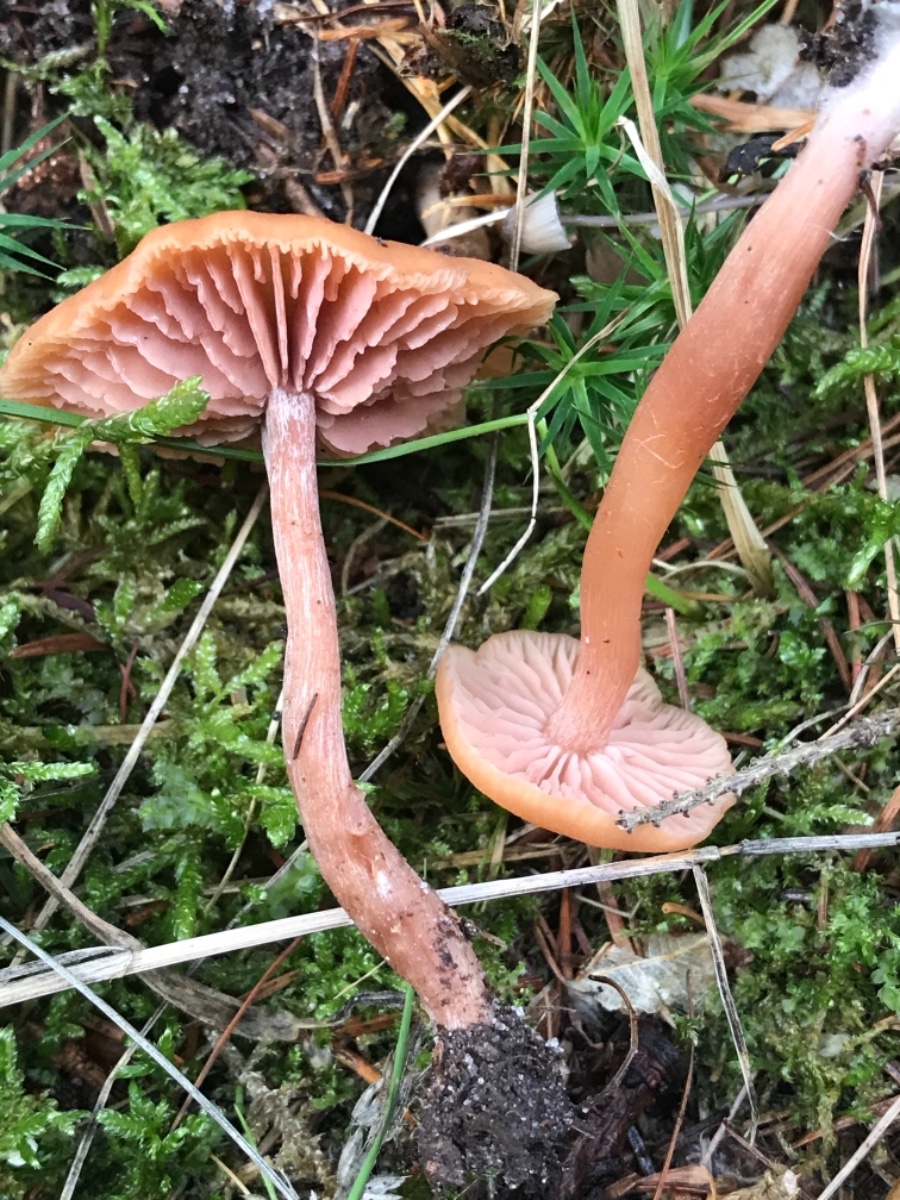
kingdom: Fungi
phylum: Basidiomycota
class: Agaricomycetes
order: Agaricales
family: Hydnangiaceae
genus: Laccaria
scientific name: Laccaria laccata
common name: rød ametysthat
